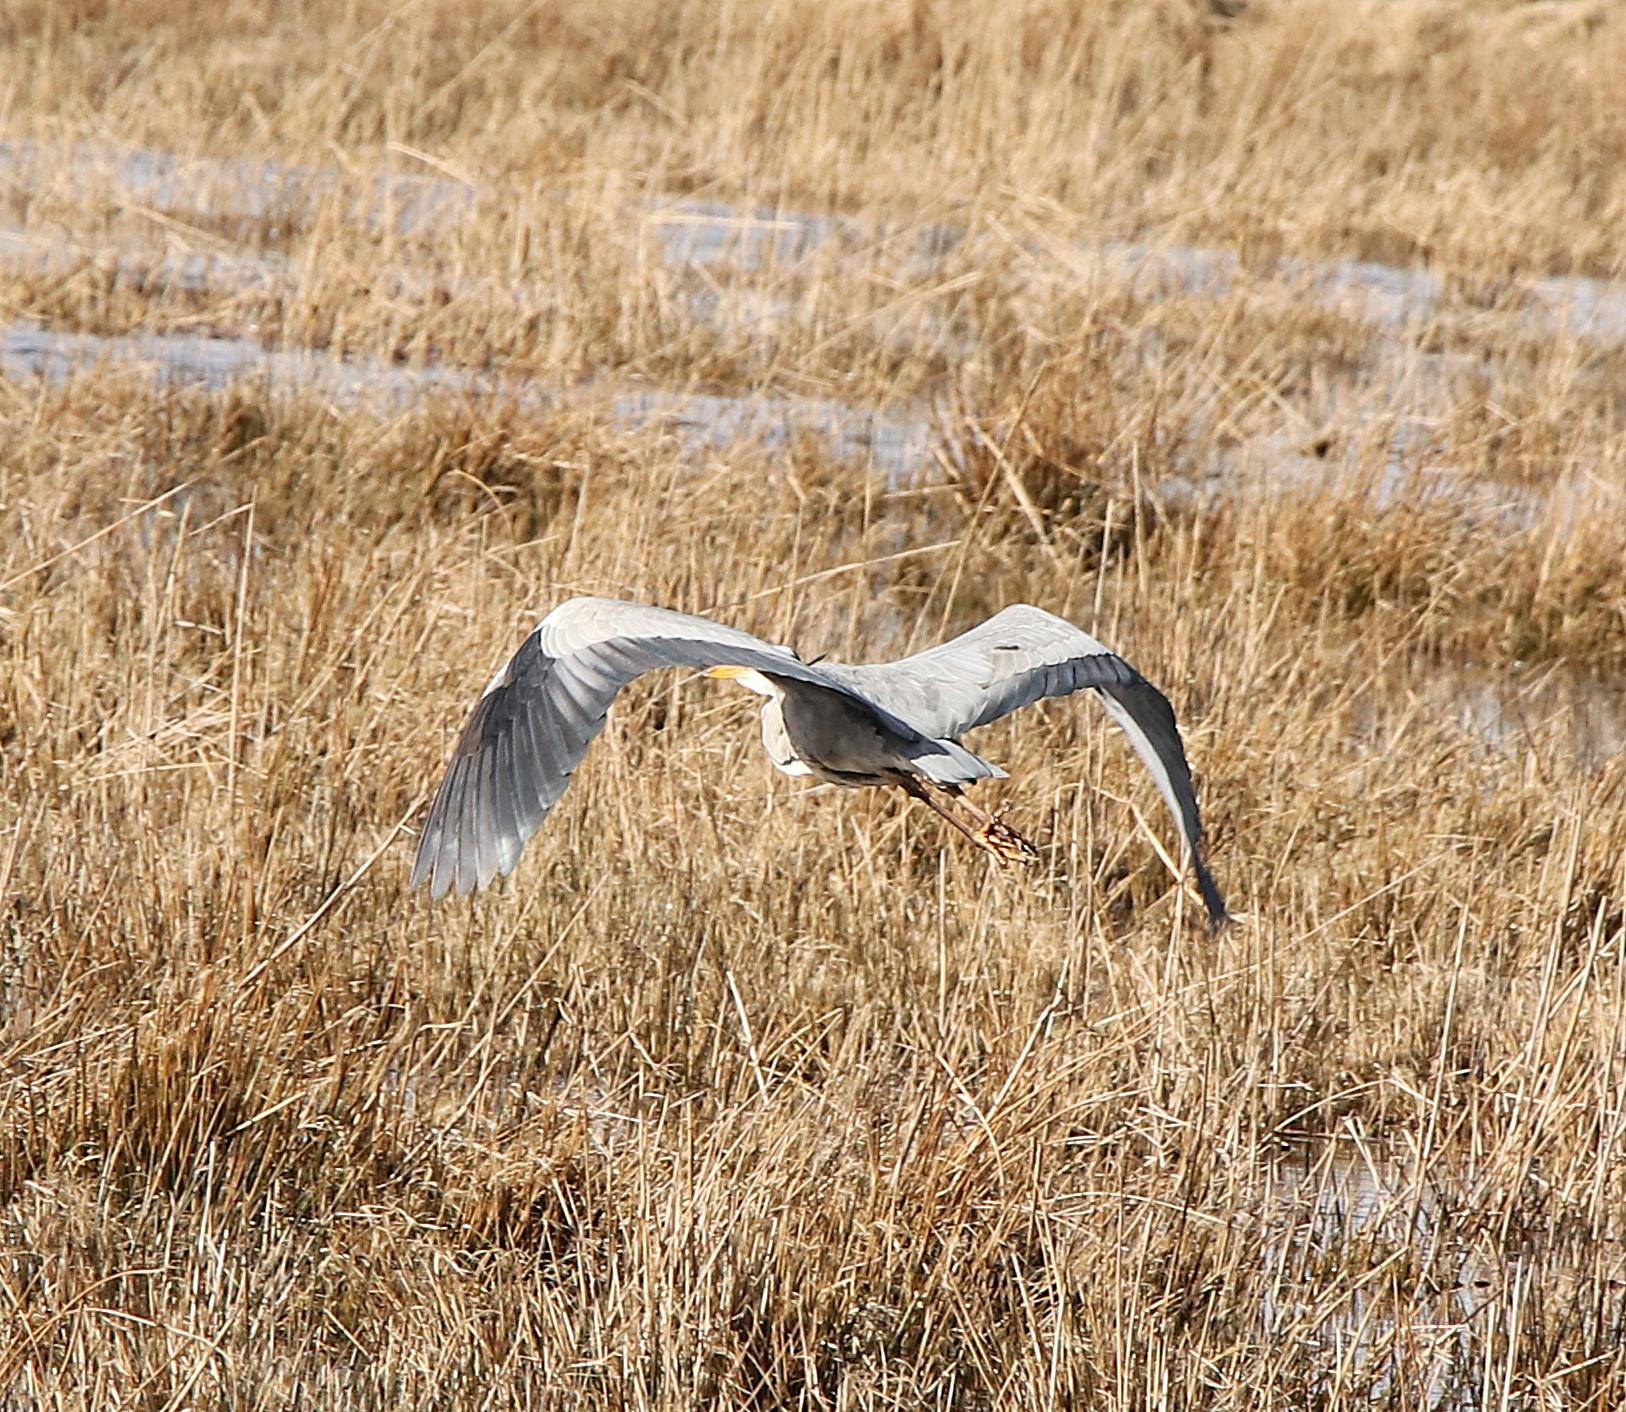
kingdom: Animalia
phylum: Chordata
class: Aves
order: Pelecaniformes
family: Ardeidae
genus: Ardea
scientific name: Ardea cinerea
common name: Fiskehejre
